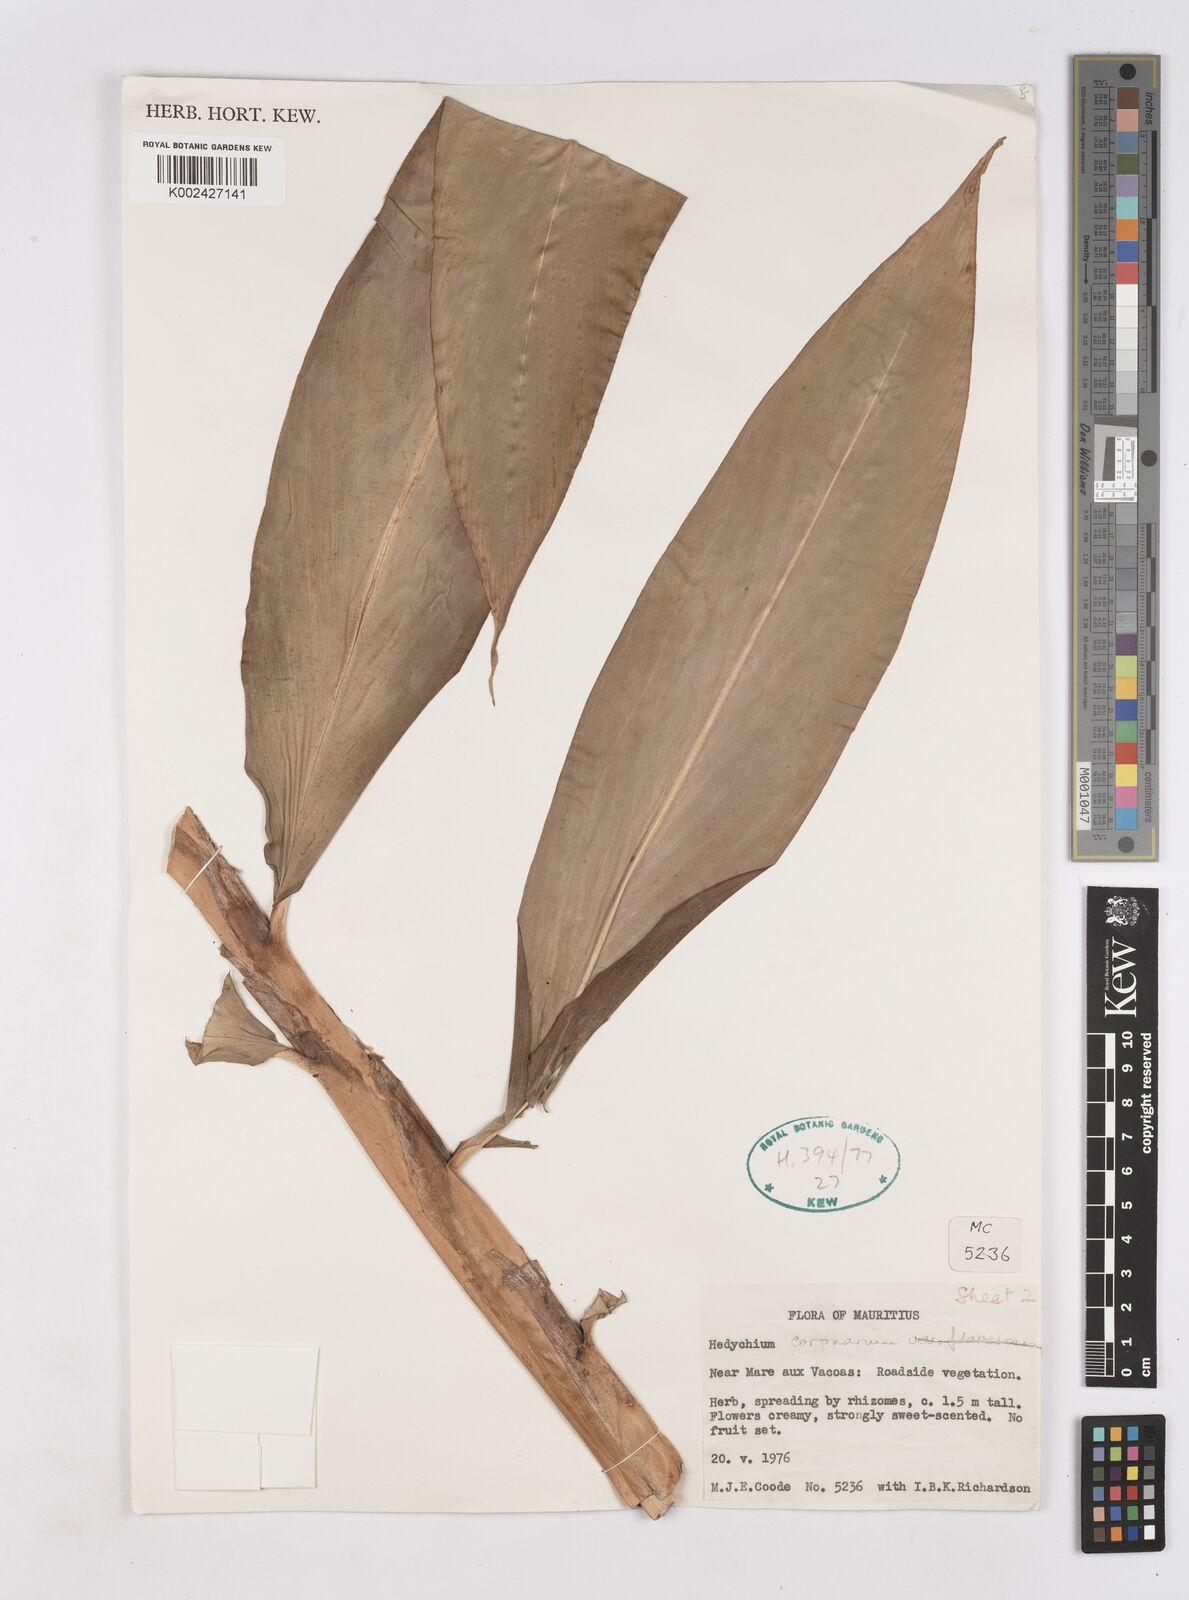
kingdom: Plantae
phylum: Tracheophyta
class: Liliopsida
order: Zingiberales
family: Zingiberaceae
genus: Hedychium
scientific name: Hedychium coronarium
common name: White garland-lily
